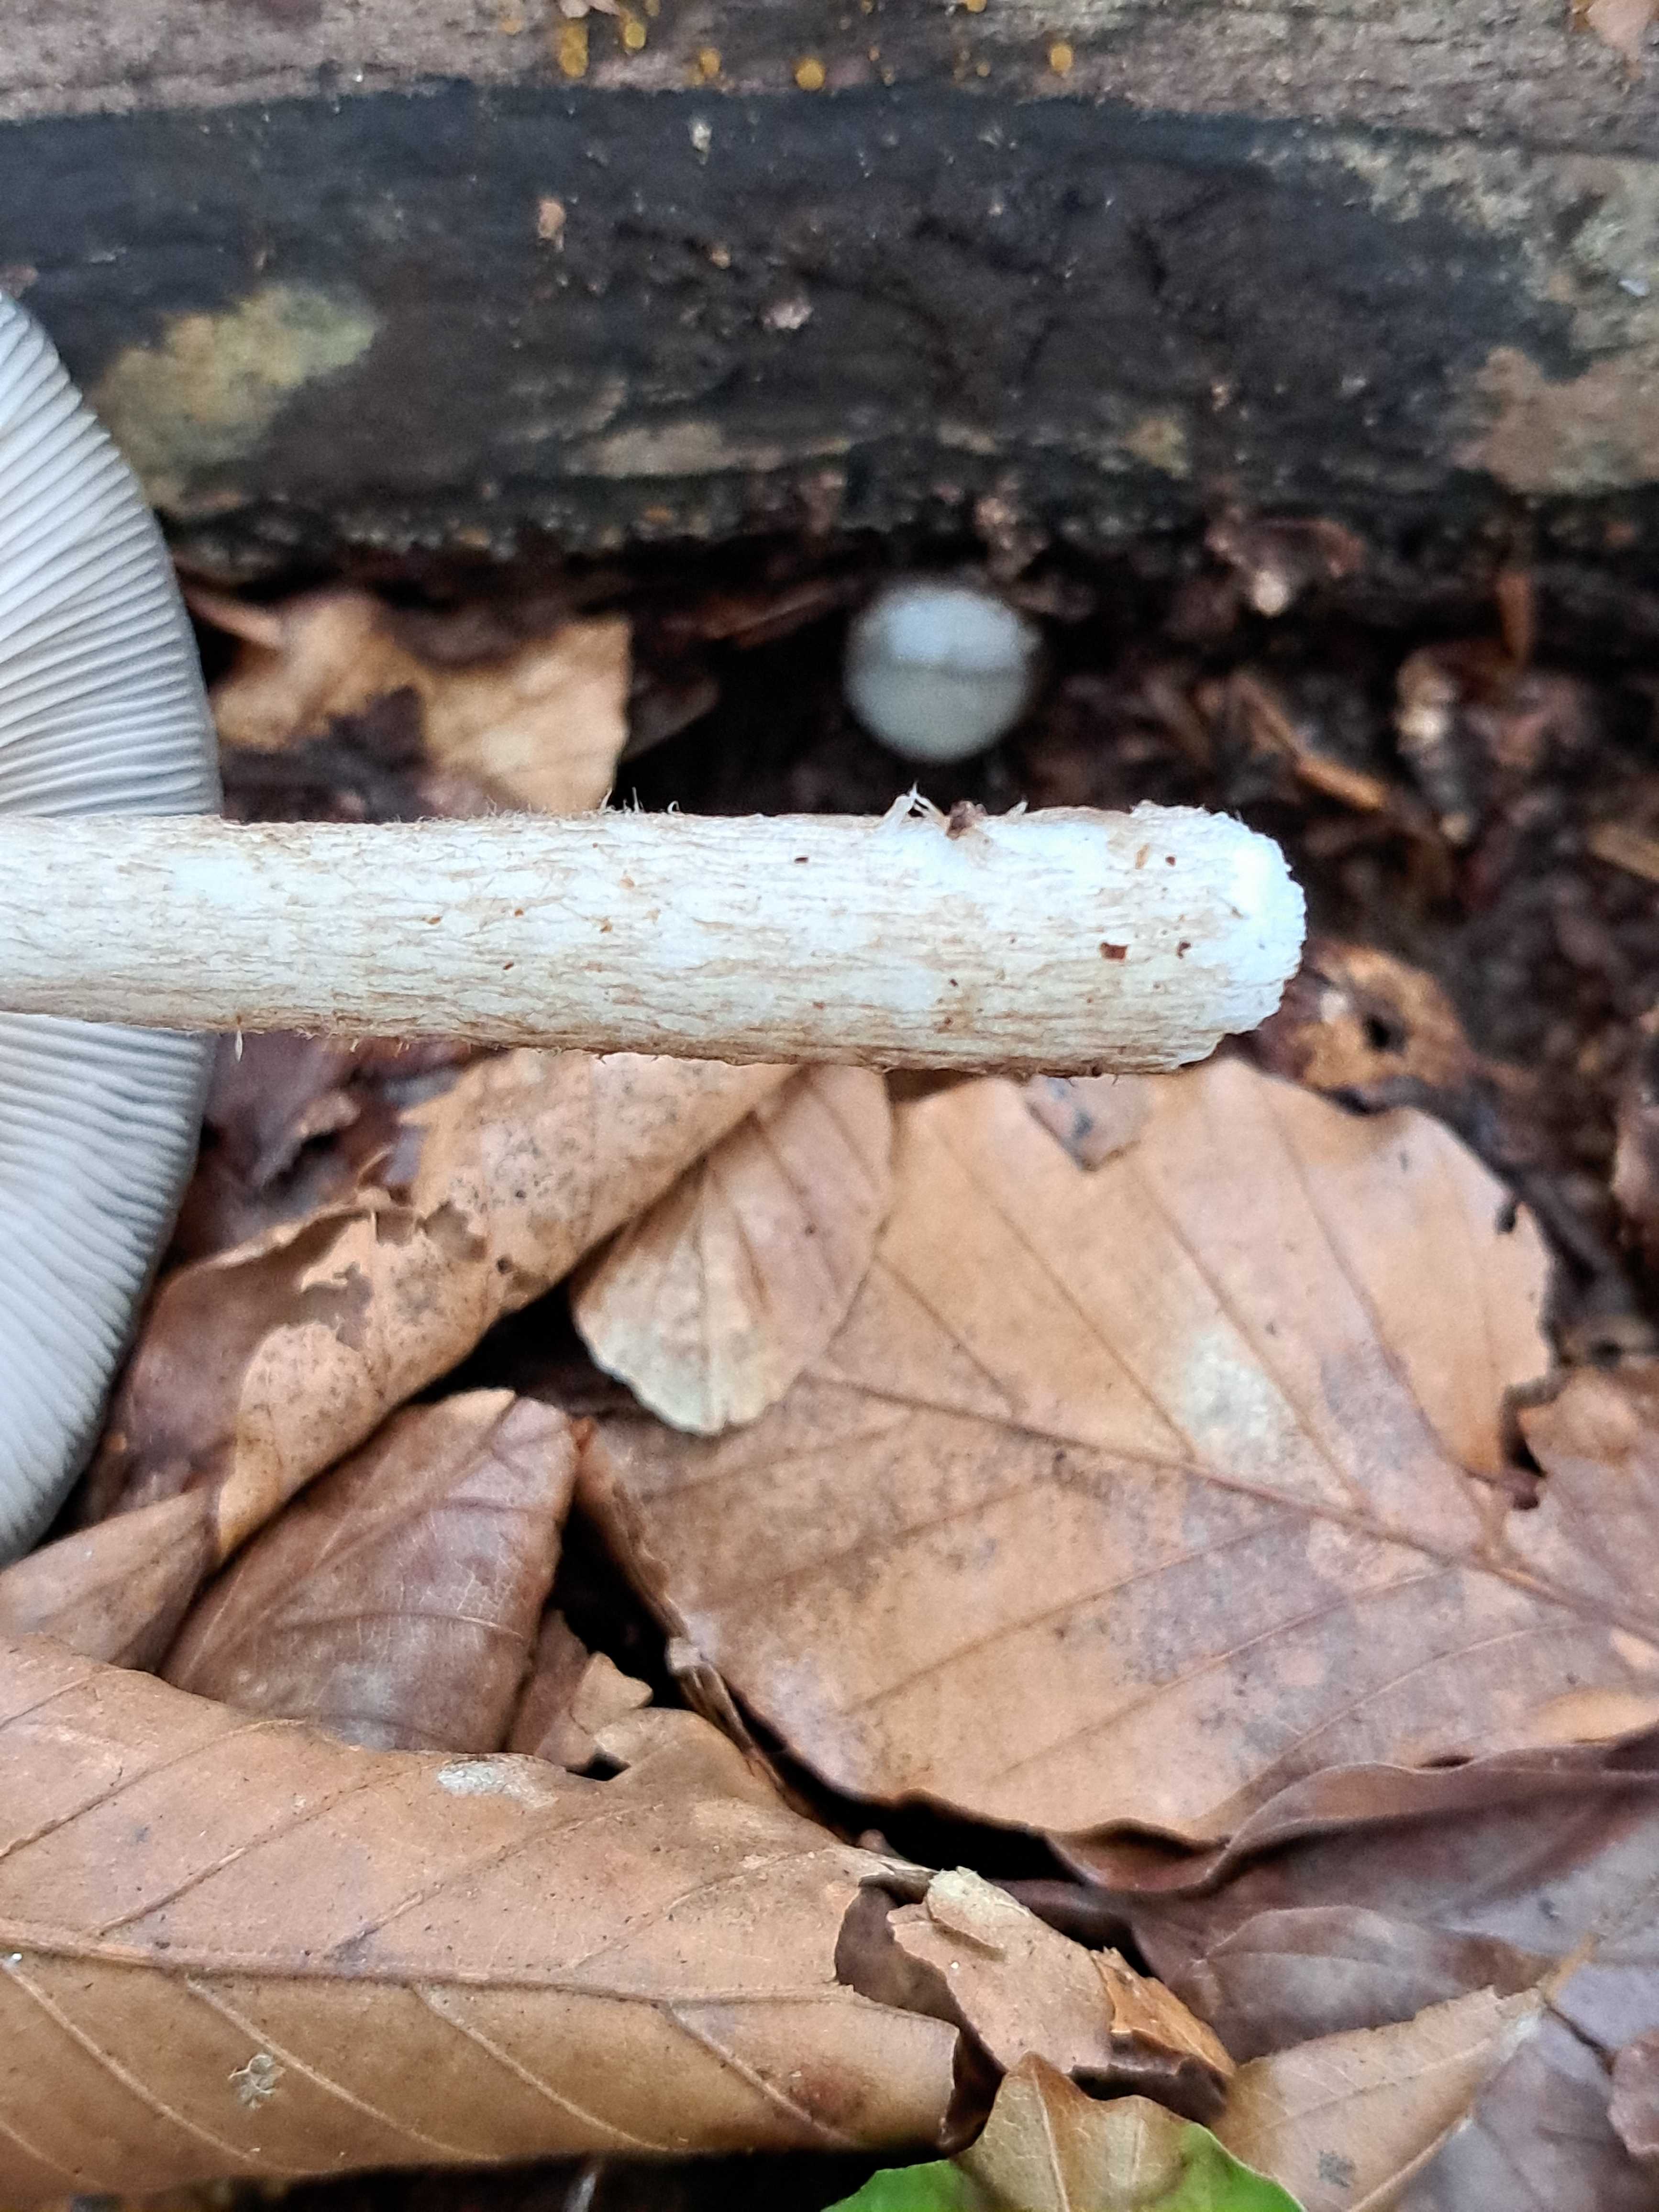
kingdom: Fungi
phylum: Basidiomycota
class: Agaricomycetes
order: Agaricales
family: Pluteaceae
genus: Pluteus
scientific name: Pluteus cervinus
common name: sodfarvet skærmhat
